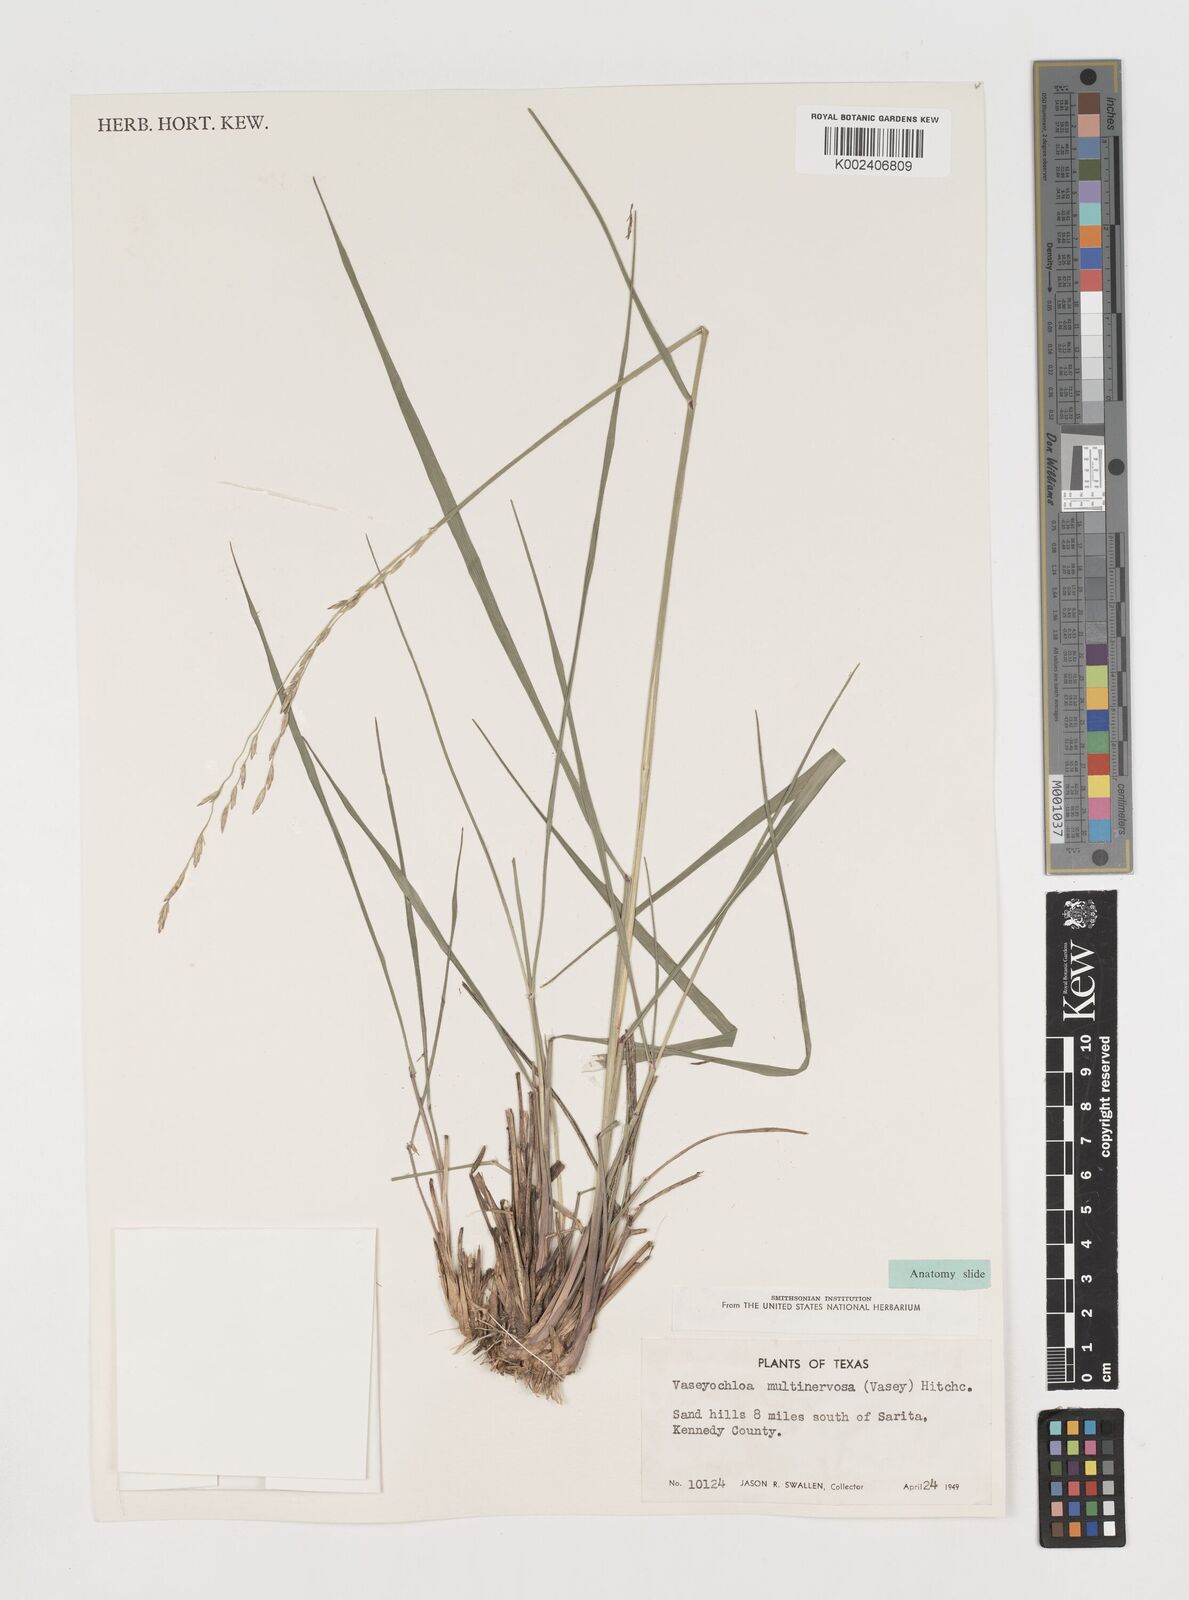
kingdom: Plantae
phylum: Tracheophyta
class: Liliopsida
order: Poales
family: Poaceae
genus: Vaseyochloa
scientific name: Vaseyochloa multinervosa
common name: Texas grass
